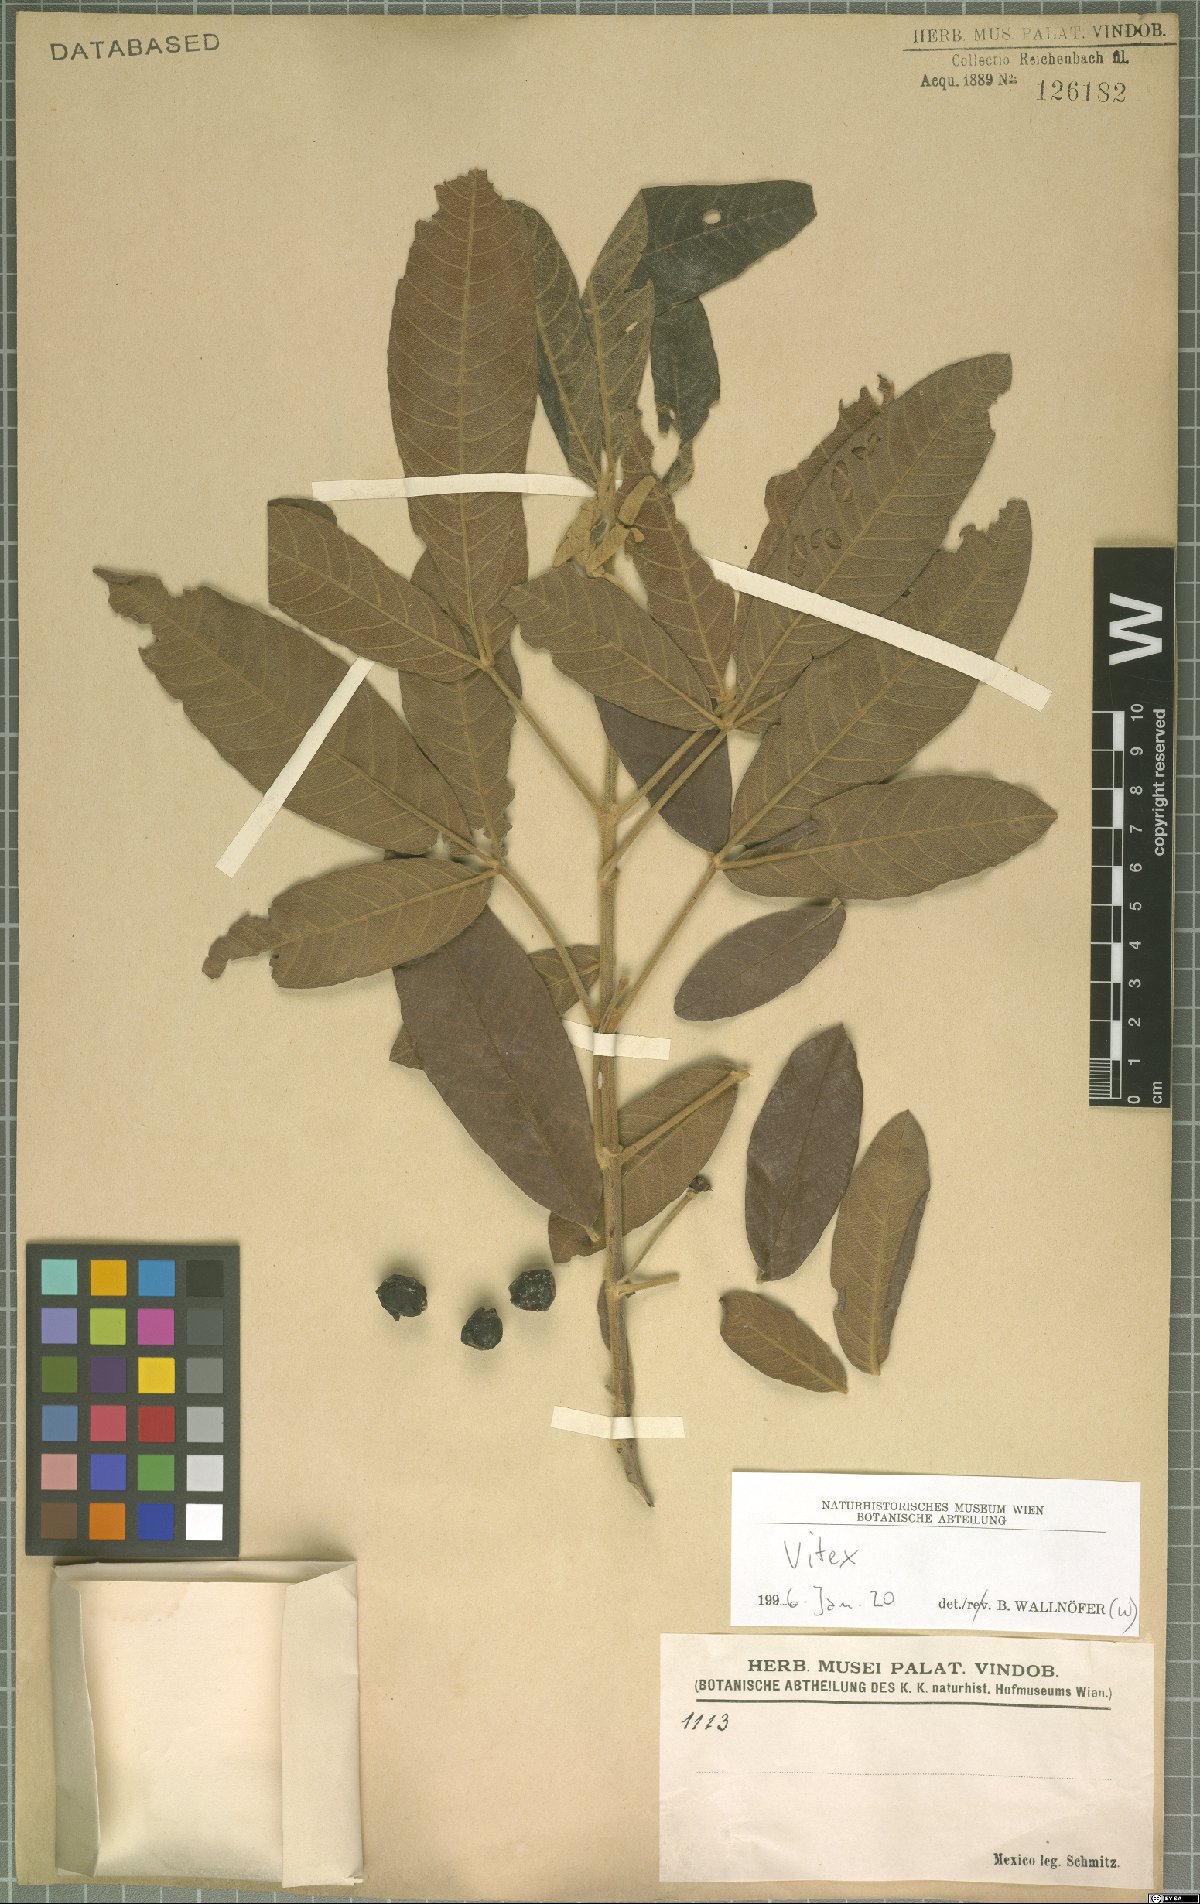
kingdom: Plantae
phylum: Tracheophyta
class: Magnoliopsida
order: Lamiales
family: Lamiaceae
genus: Vitex
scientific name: Vitex
